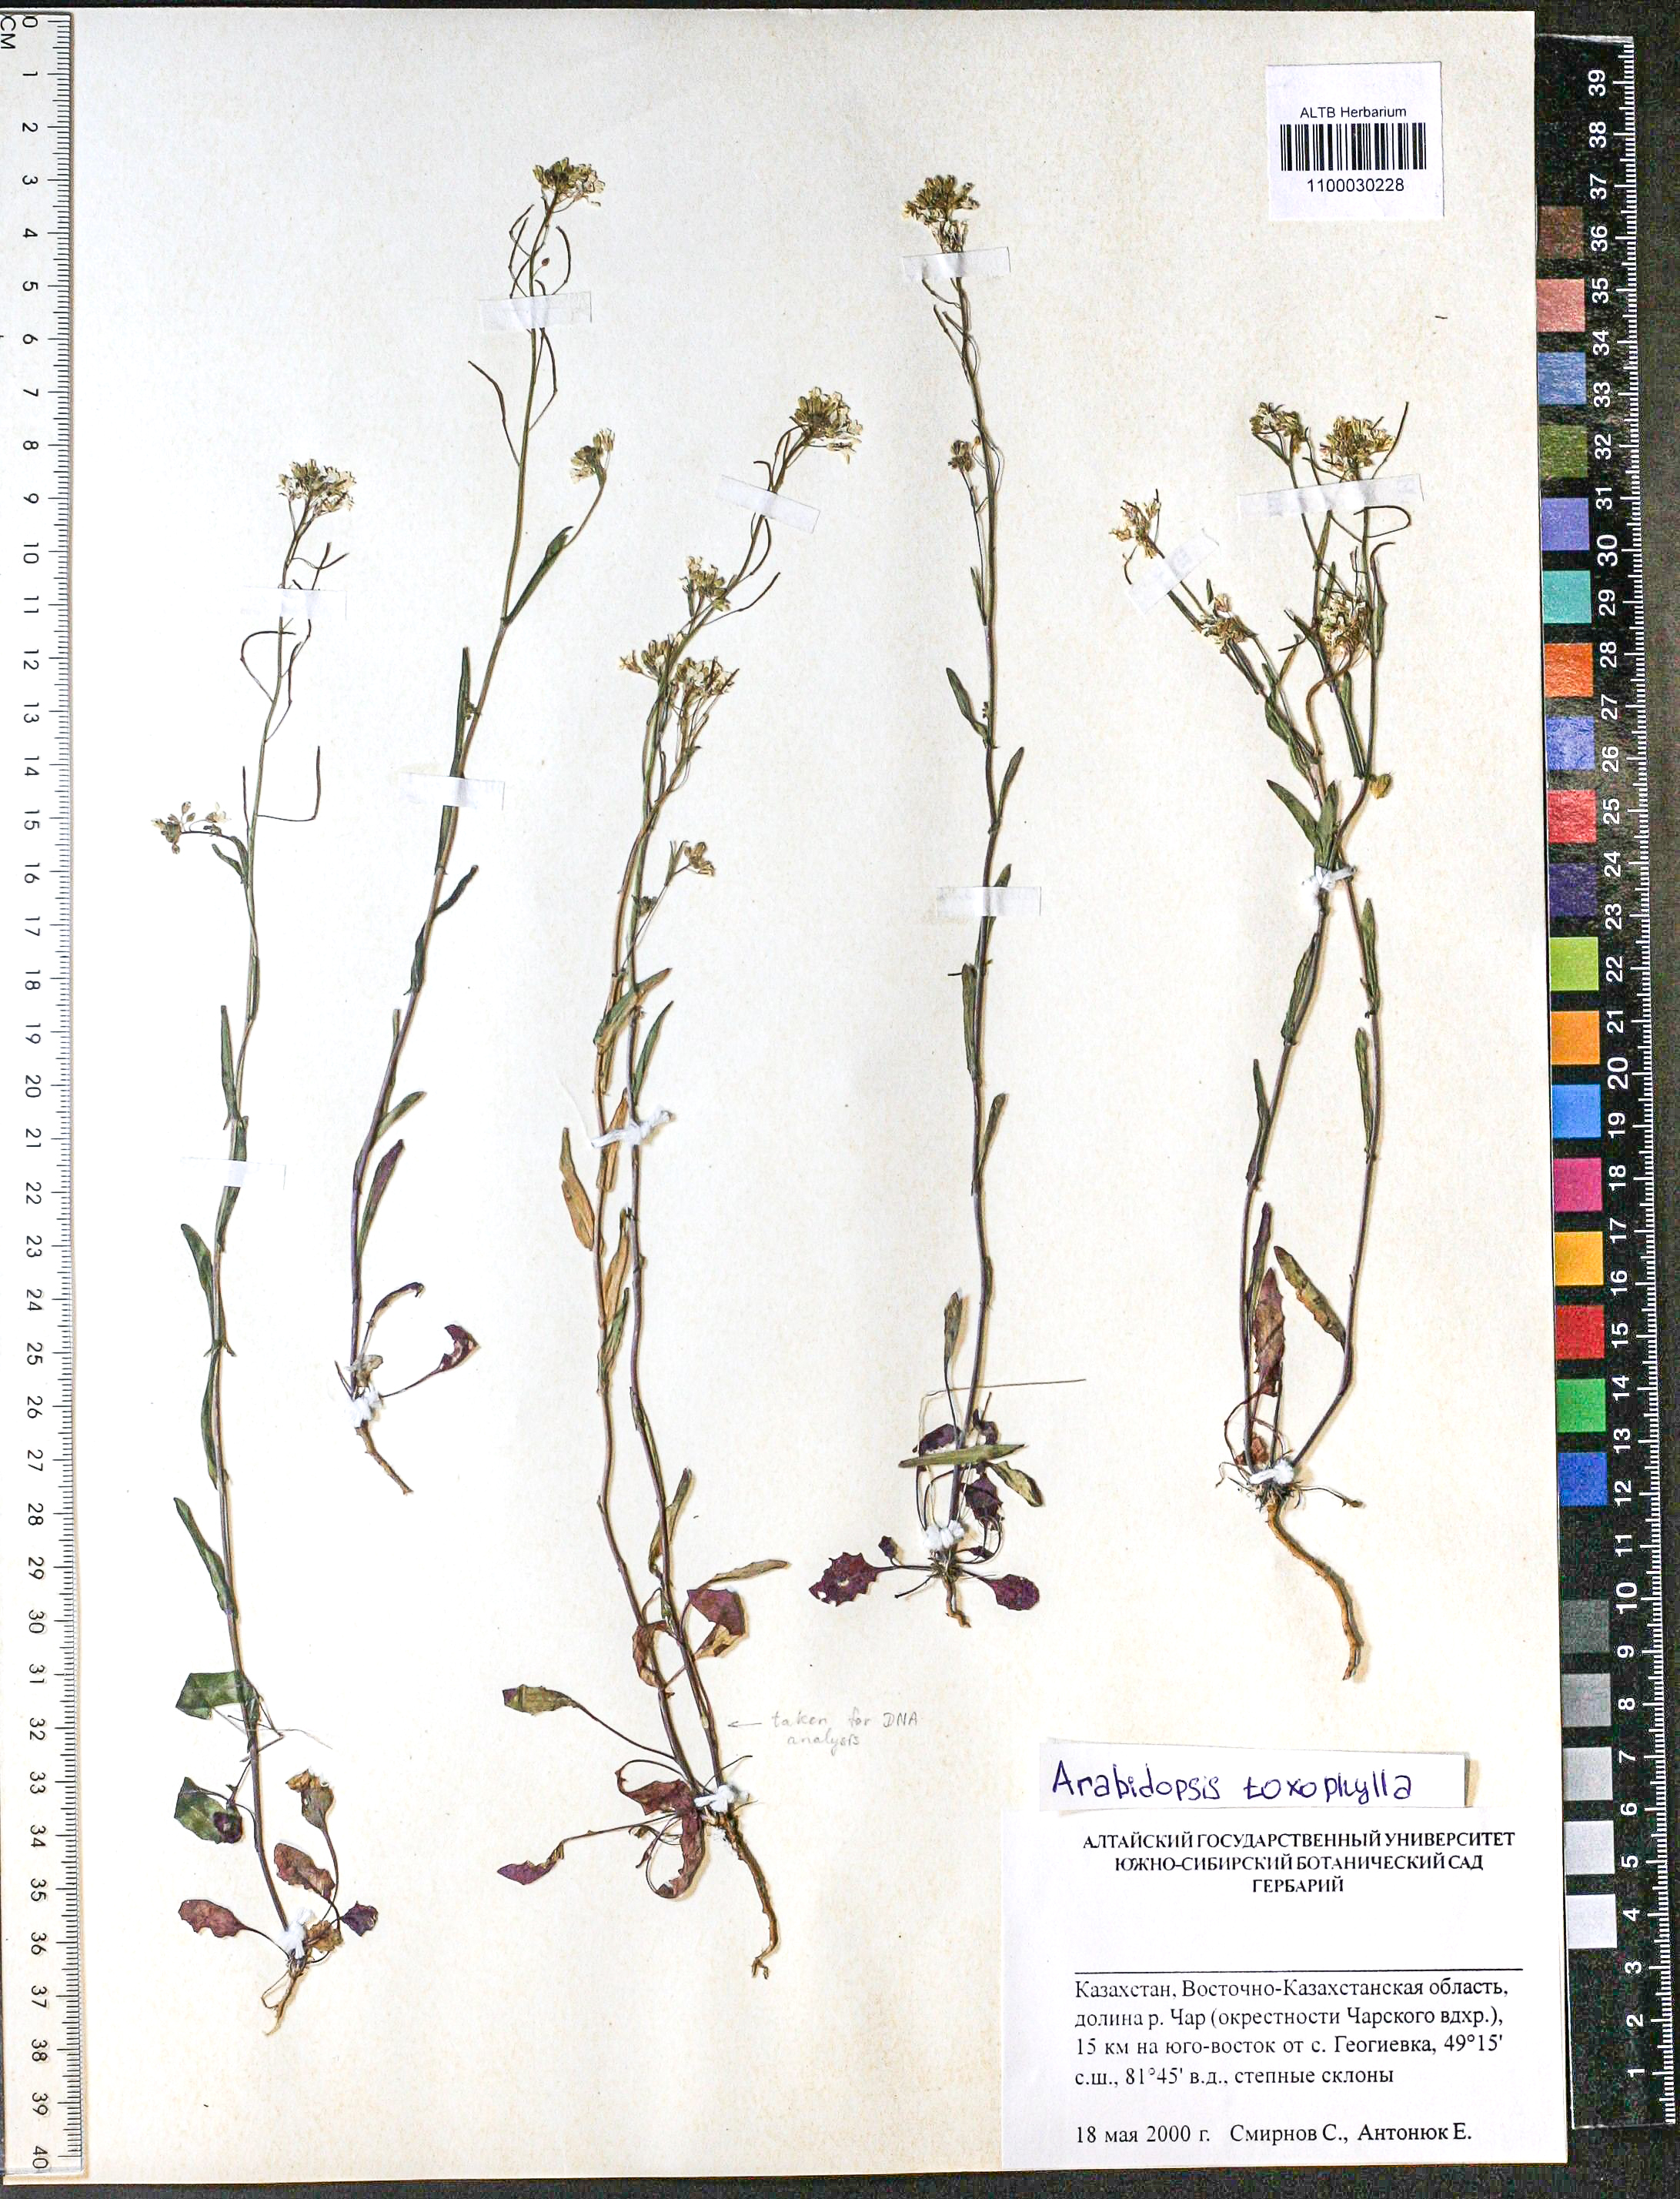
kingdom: Plantae
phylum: Tracheophyta
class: Magnoliopsida
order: Brassicales
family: Brassicaceae
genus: Pseudoarabidopsis
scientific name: Pseudoarabidopsis toxophylla
